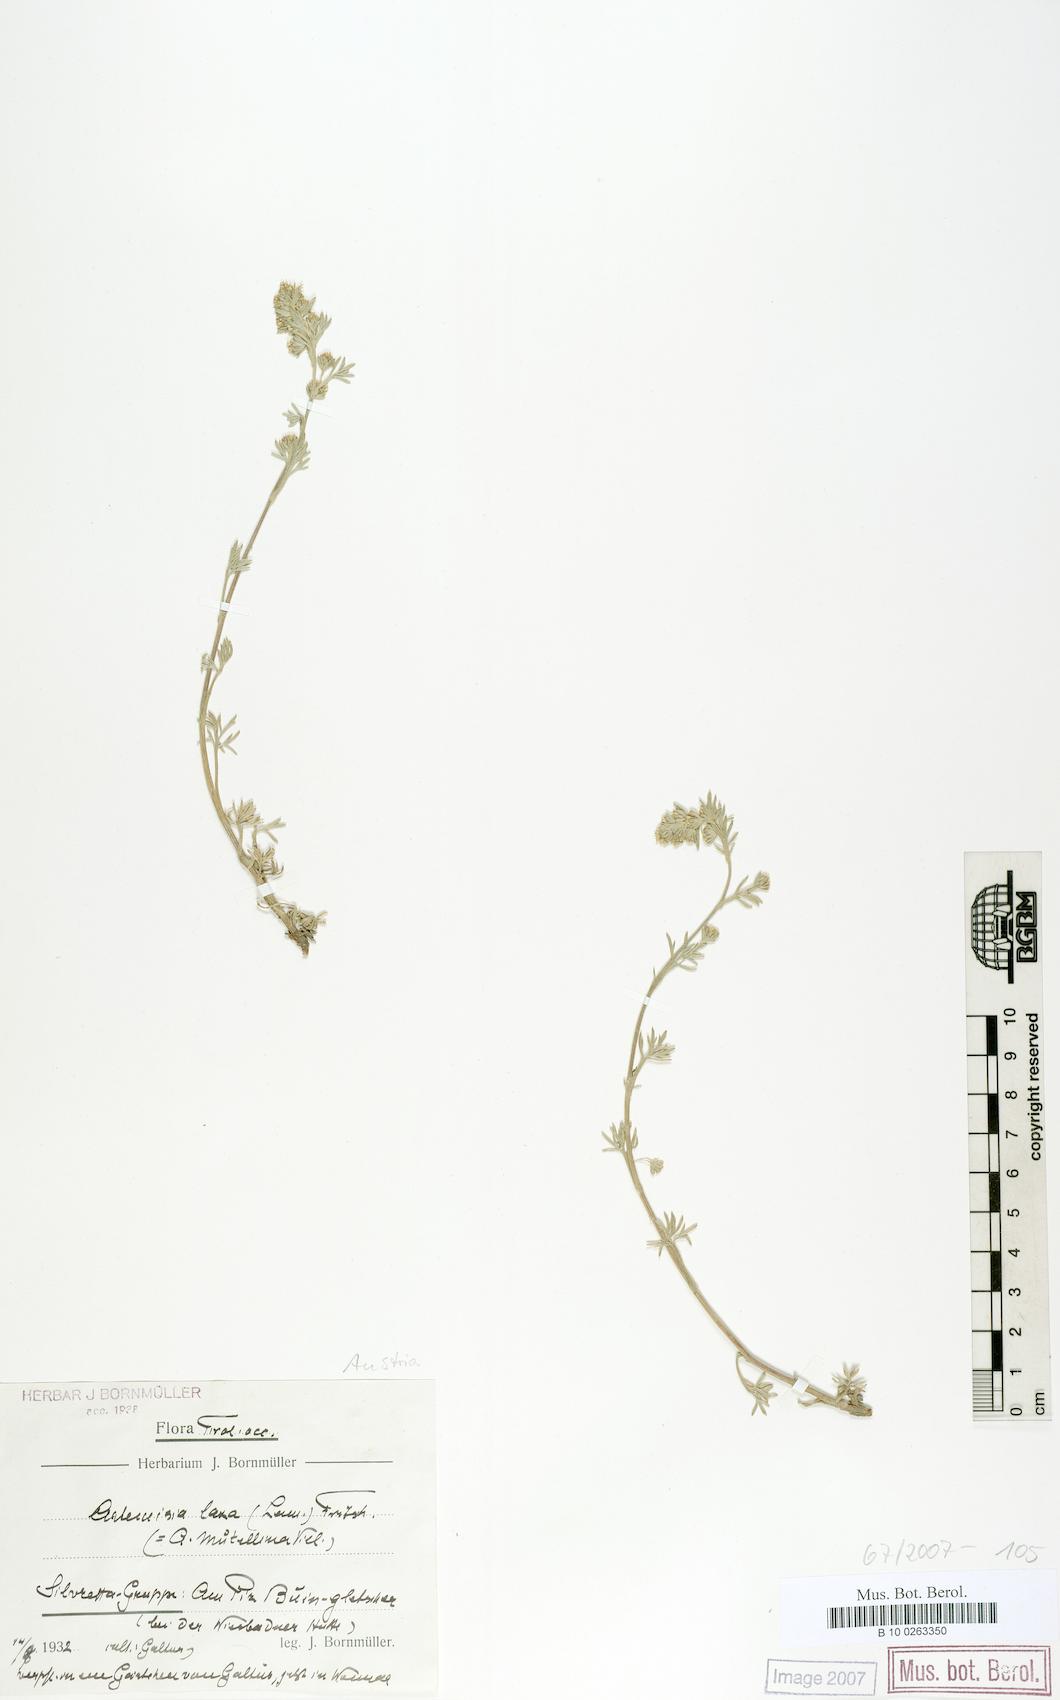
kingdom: Plantae
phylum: Tracheophyta
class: Magnoliopsida
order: Asterales
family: Asteraceae
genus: Artemisia
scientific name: Artemisia mutellina
